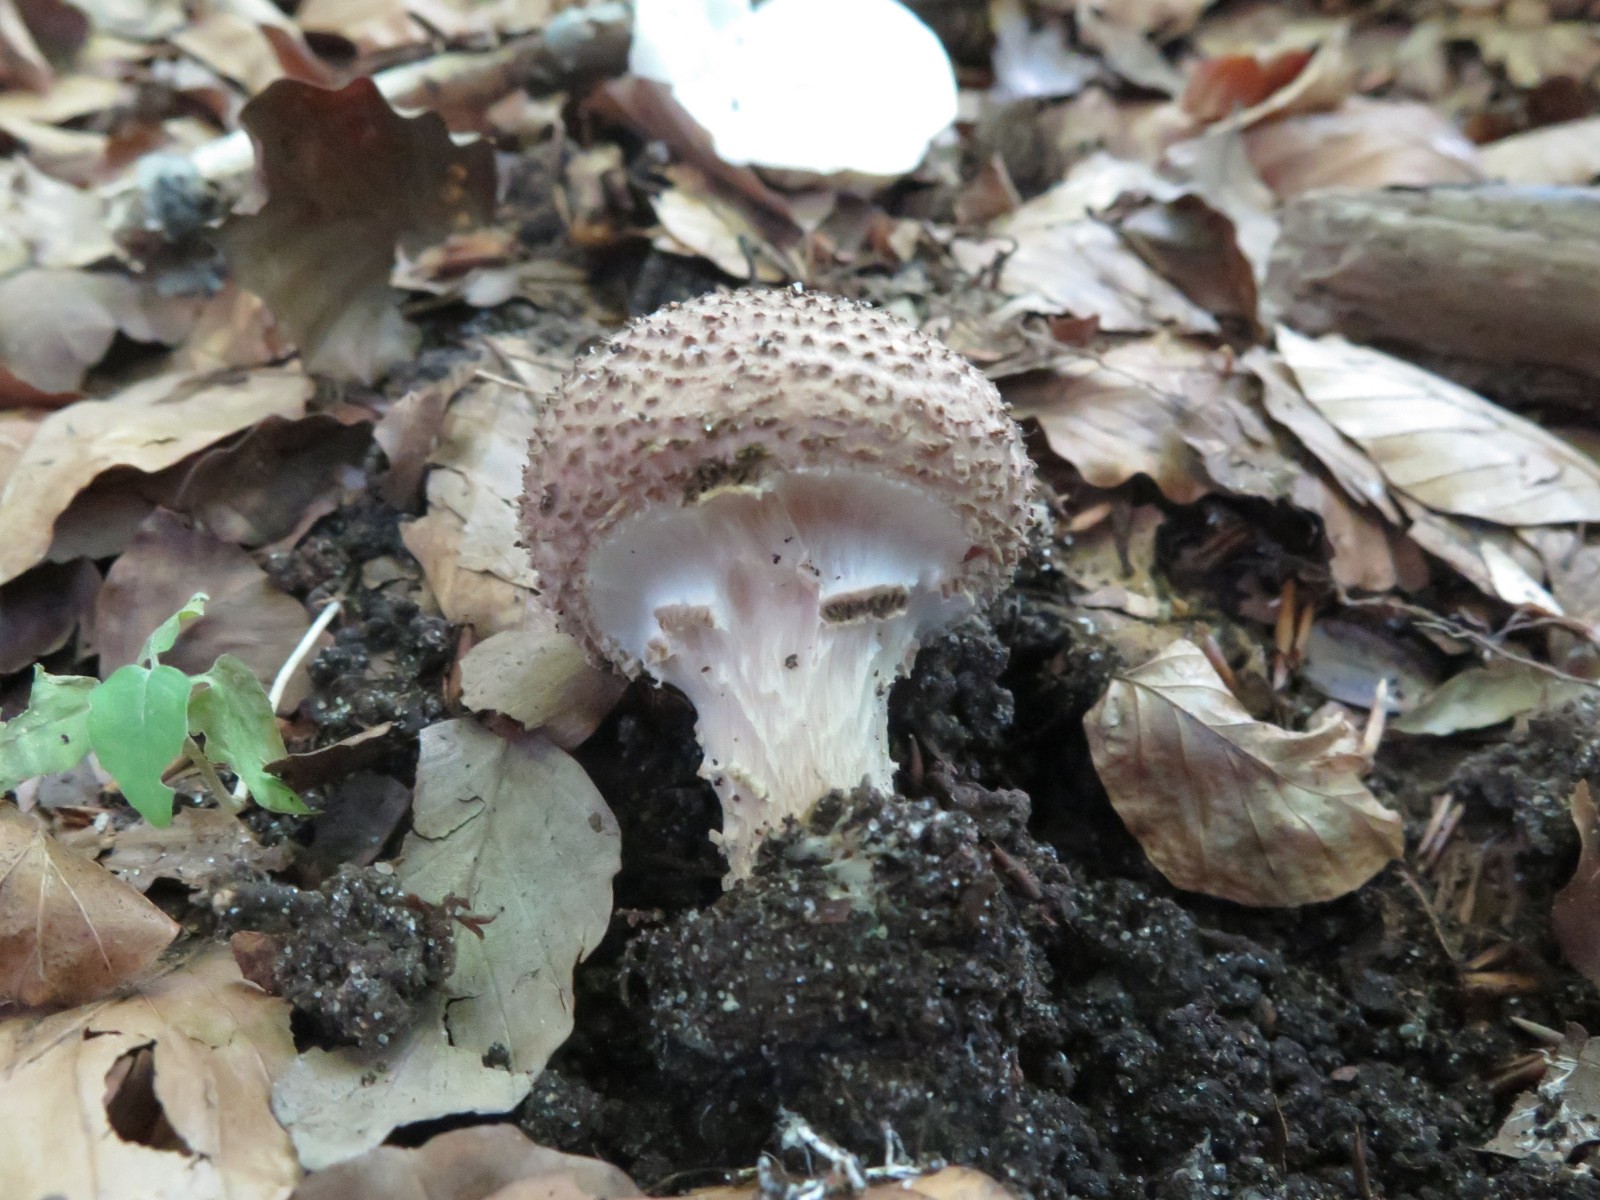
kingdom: Fungi
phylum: Basidiomycota
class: Agaricomycetes
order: Agaricales
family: Agaricaceae
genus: Echinoderma
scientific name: Echinoderma asperum
